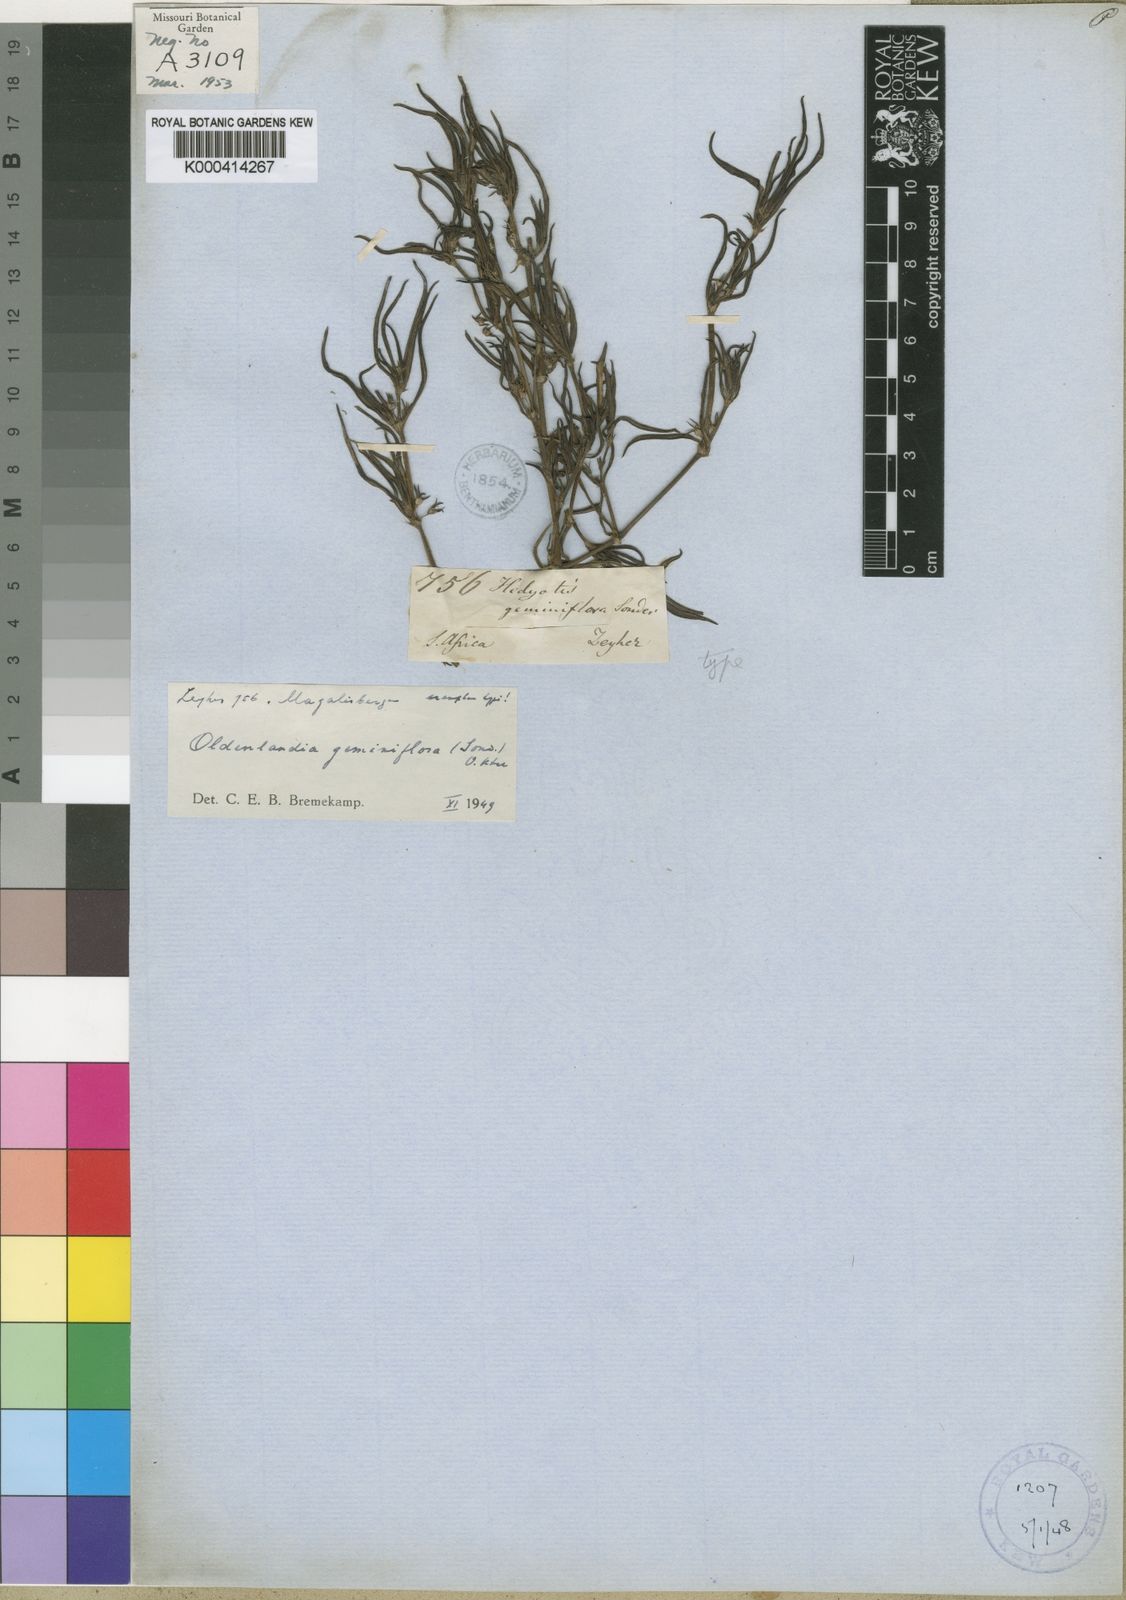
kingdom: Plantae
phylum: Tracheophyta
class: Magnoliopsida
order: Gentianales
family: Rubiaceae
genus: Oldenlandia
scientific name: Oldenlandia capensis
